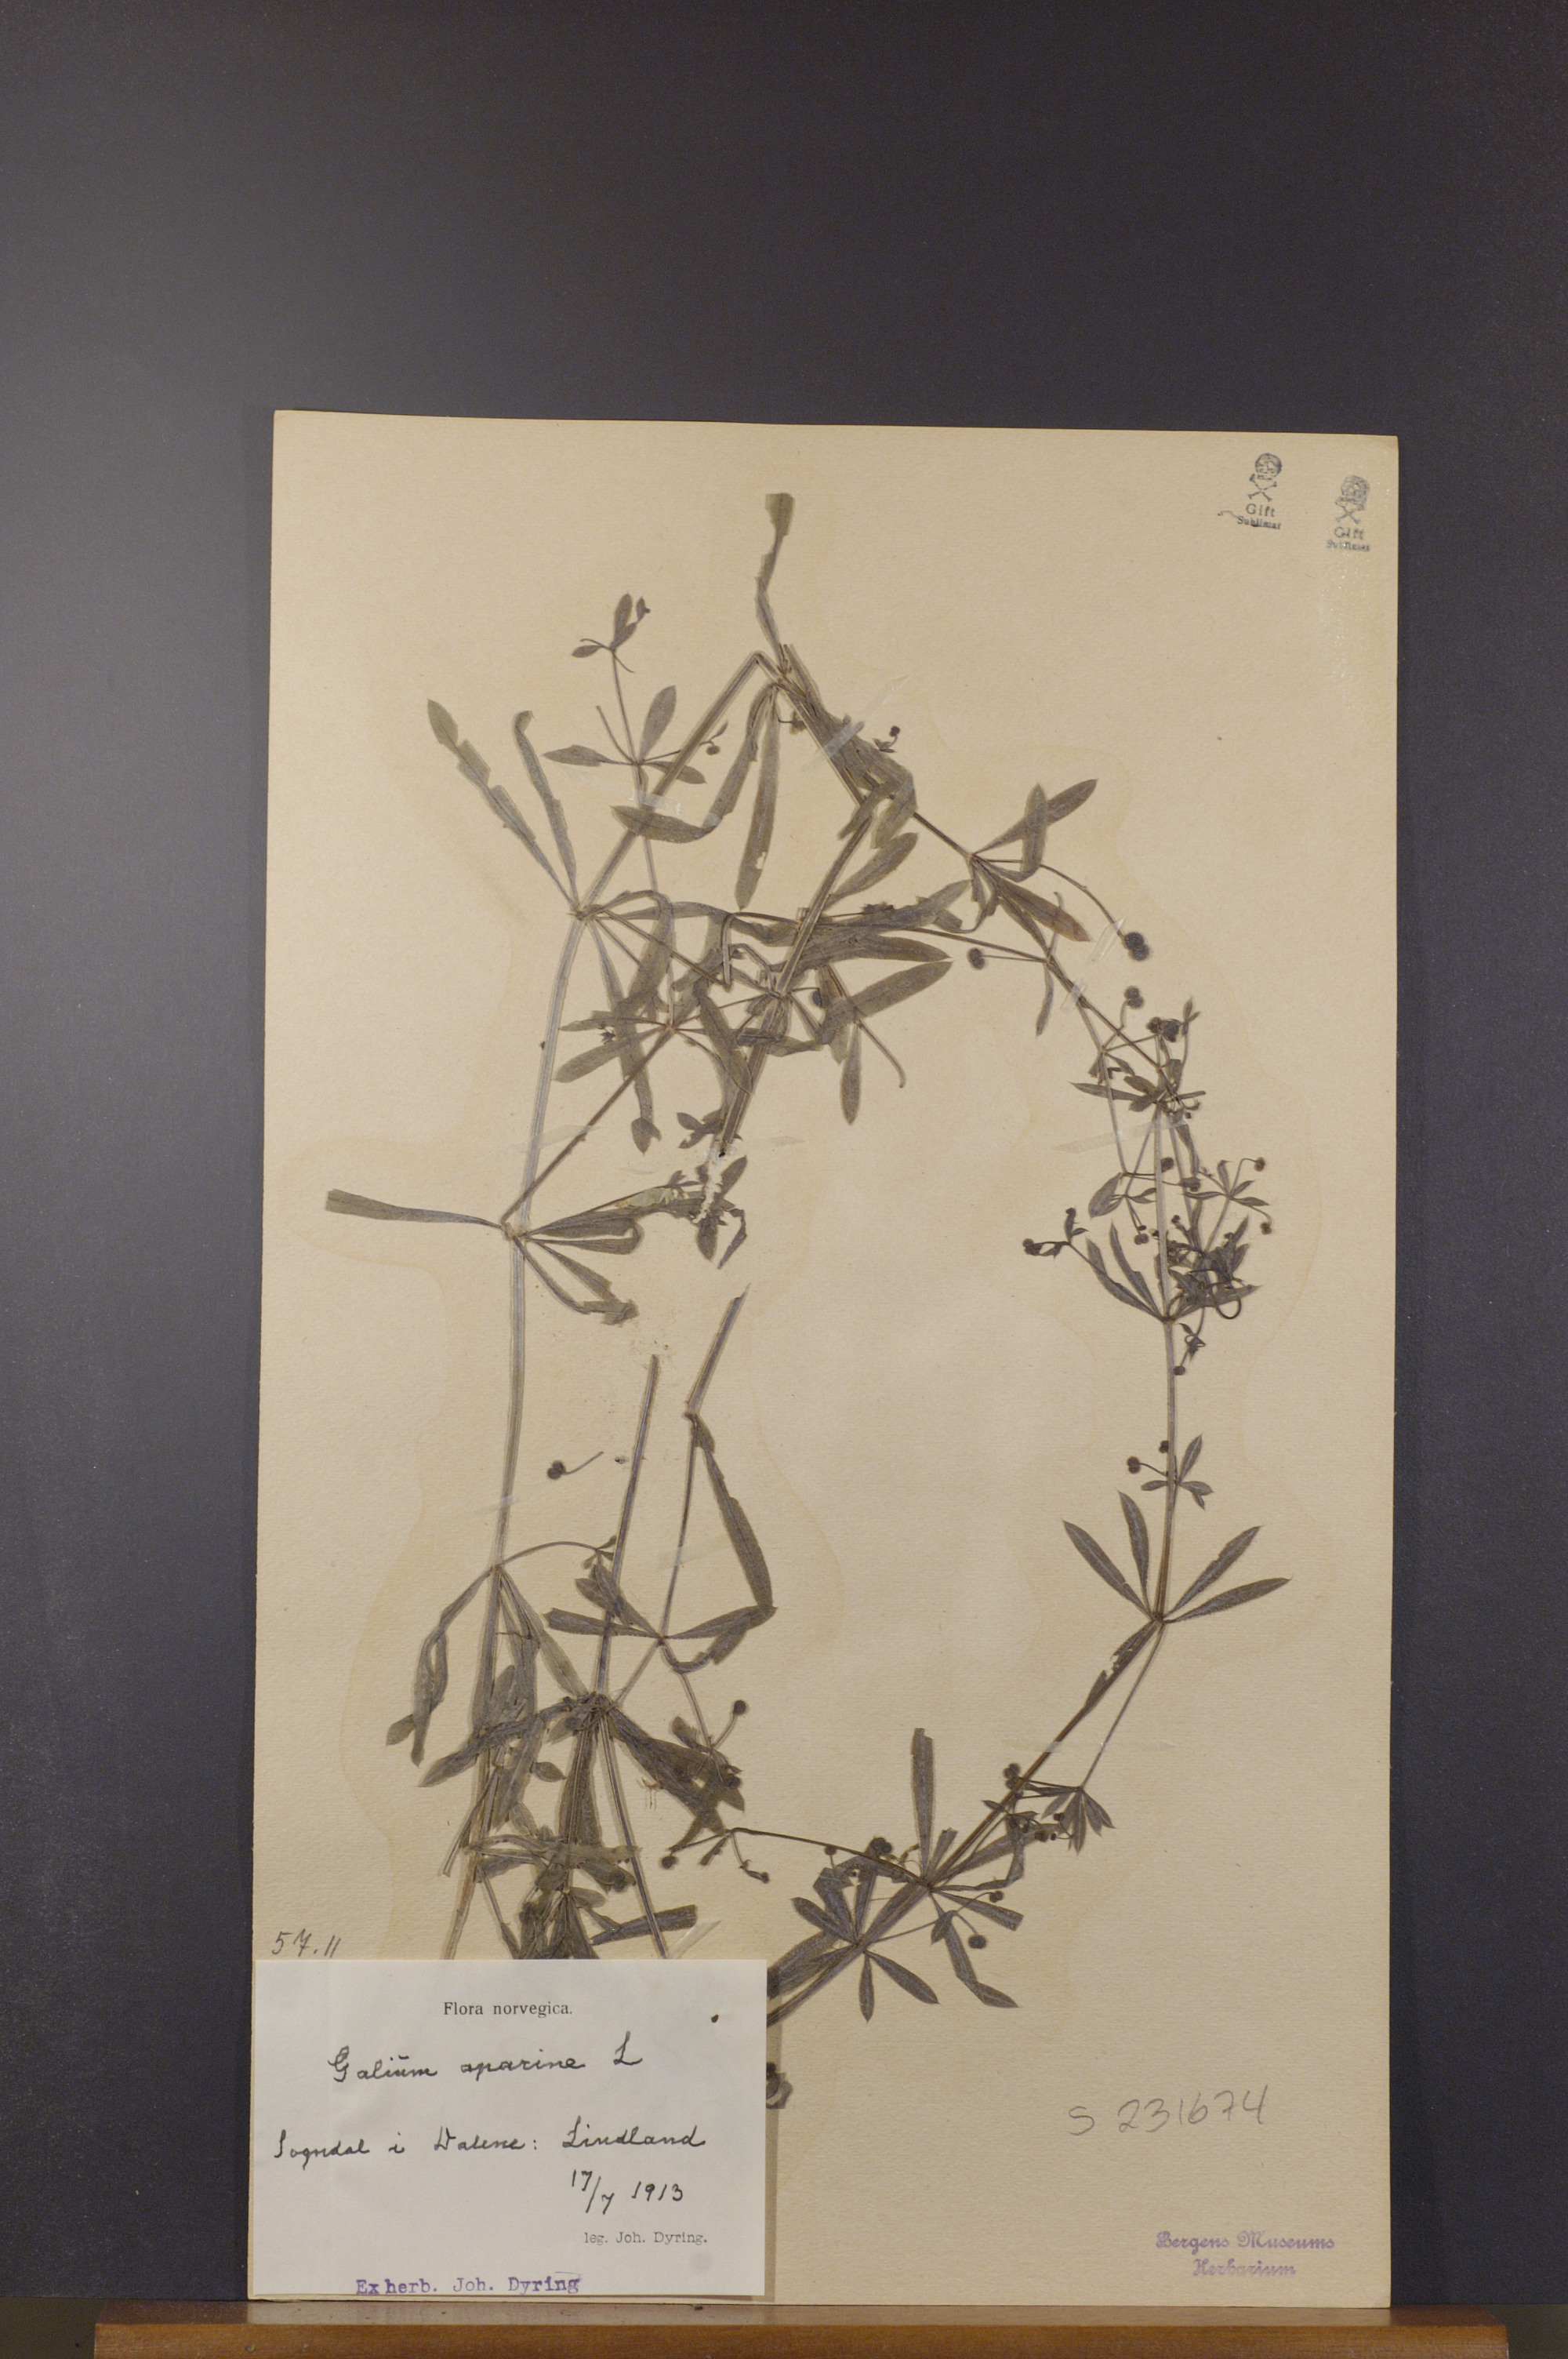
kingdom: Plantae
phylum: Tracheophyta
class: Magnoliopsida
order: Gentianales
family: Rubiaceae
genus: Galium
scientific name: Galium aparine
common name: Cleavers
